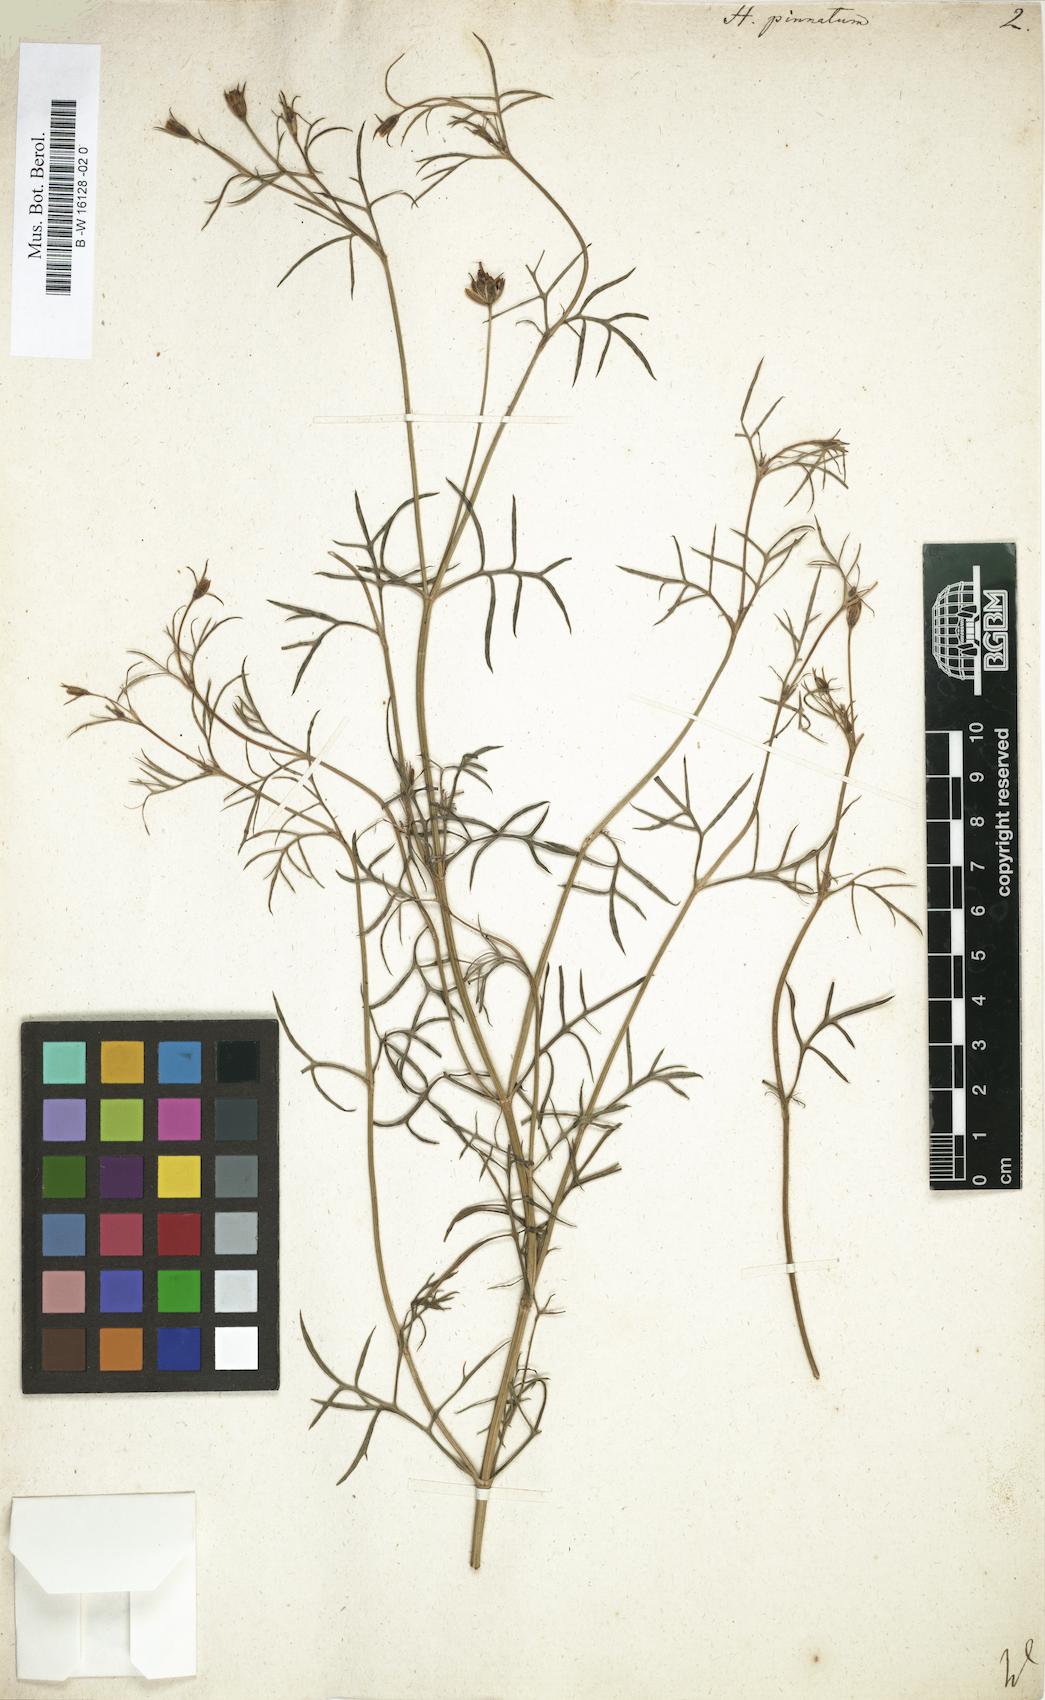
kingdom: Plantae
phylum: Tracheophyta
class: Magnoliopsida
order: Asterales
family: Asteraceae
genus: Heterosperma
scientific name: Heterosperma
